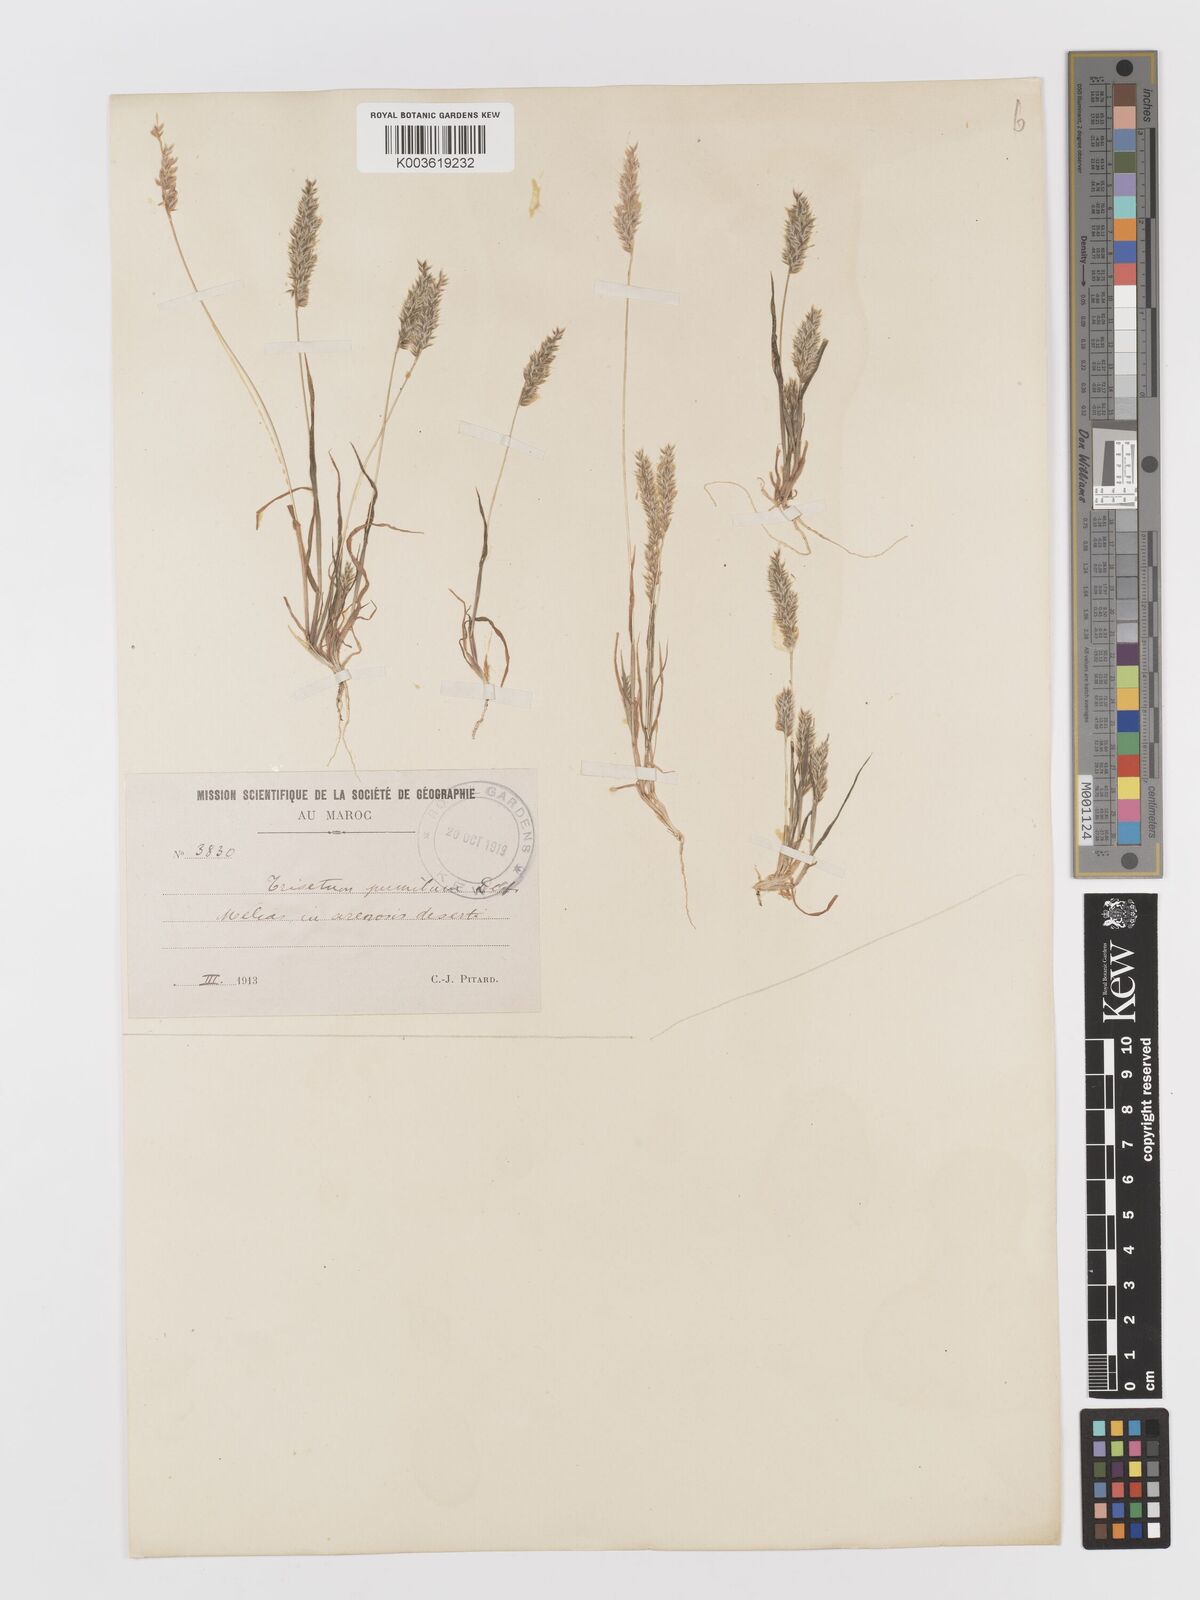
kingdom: Plantae
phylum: Tracheophyta
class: Liliopsida
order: Poales
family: Poaceae
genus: Rostraria
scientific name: Rostraria
